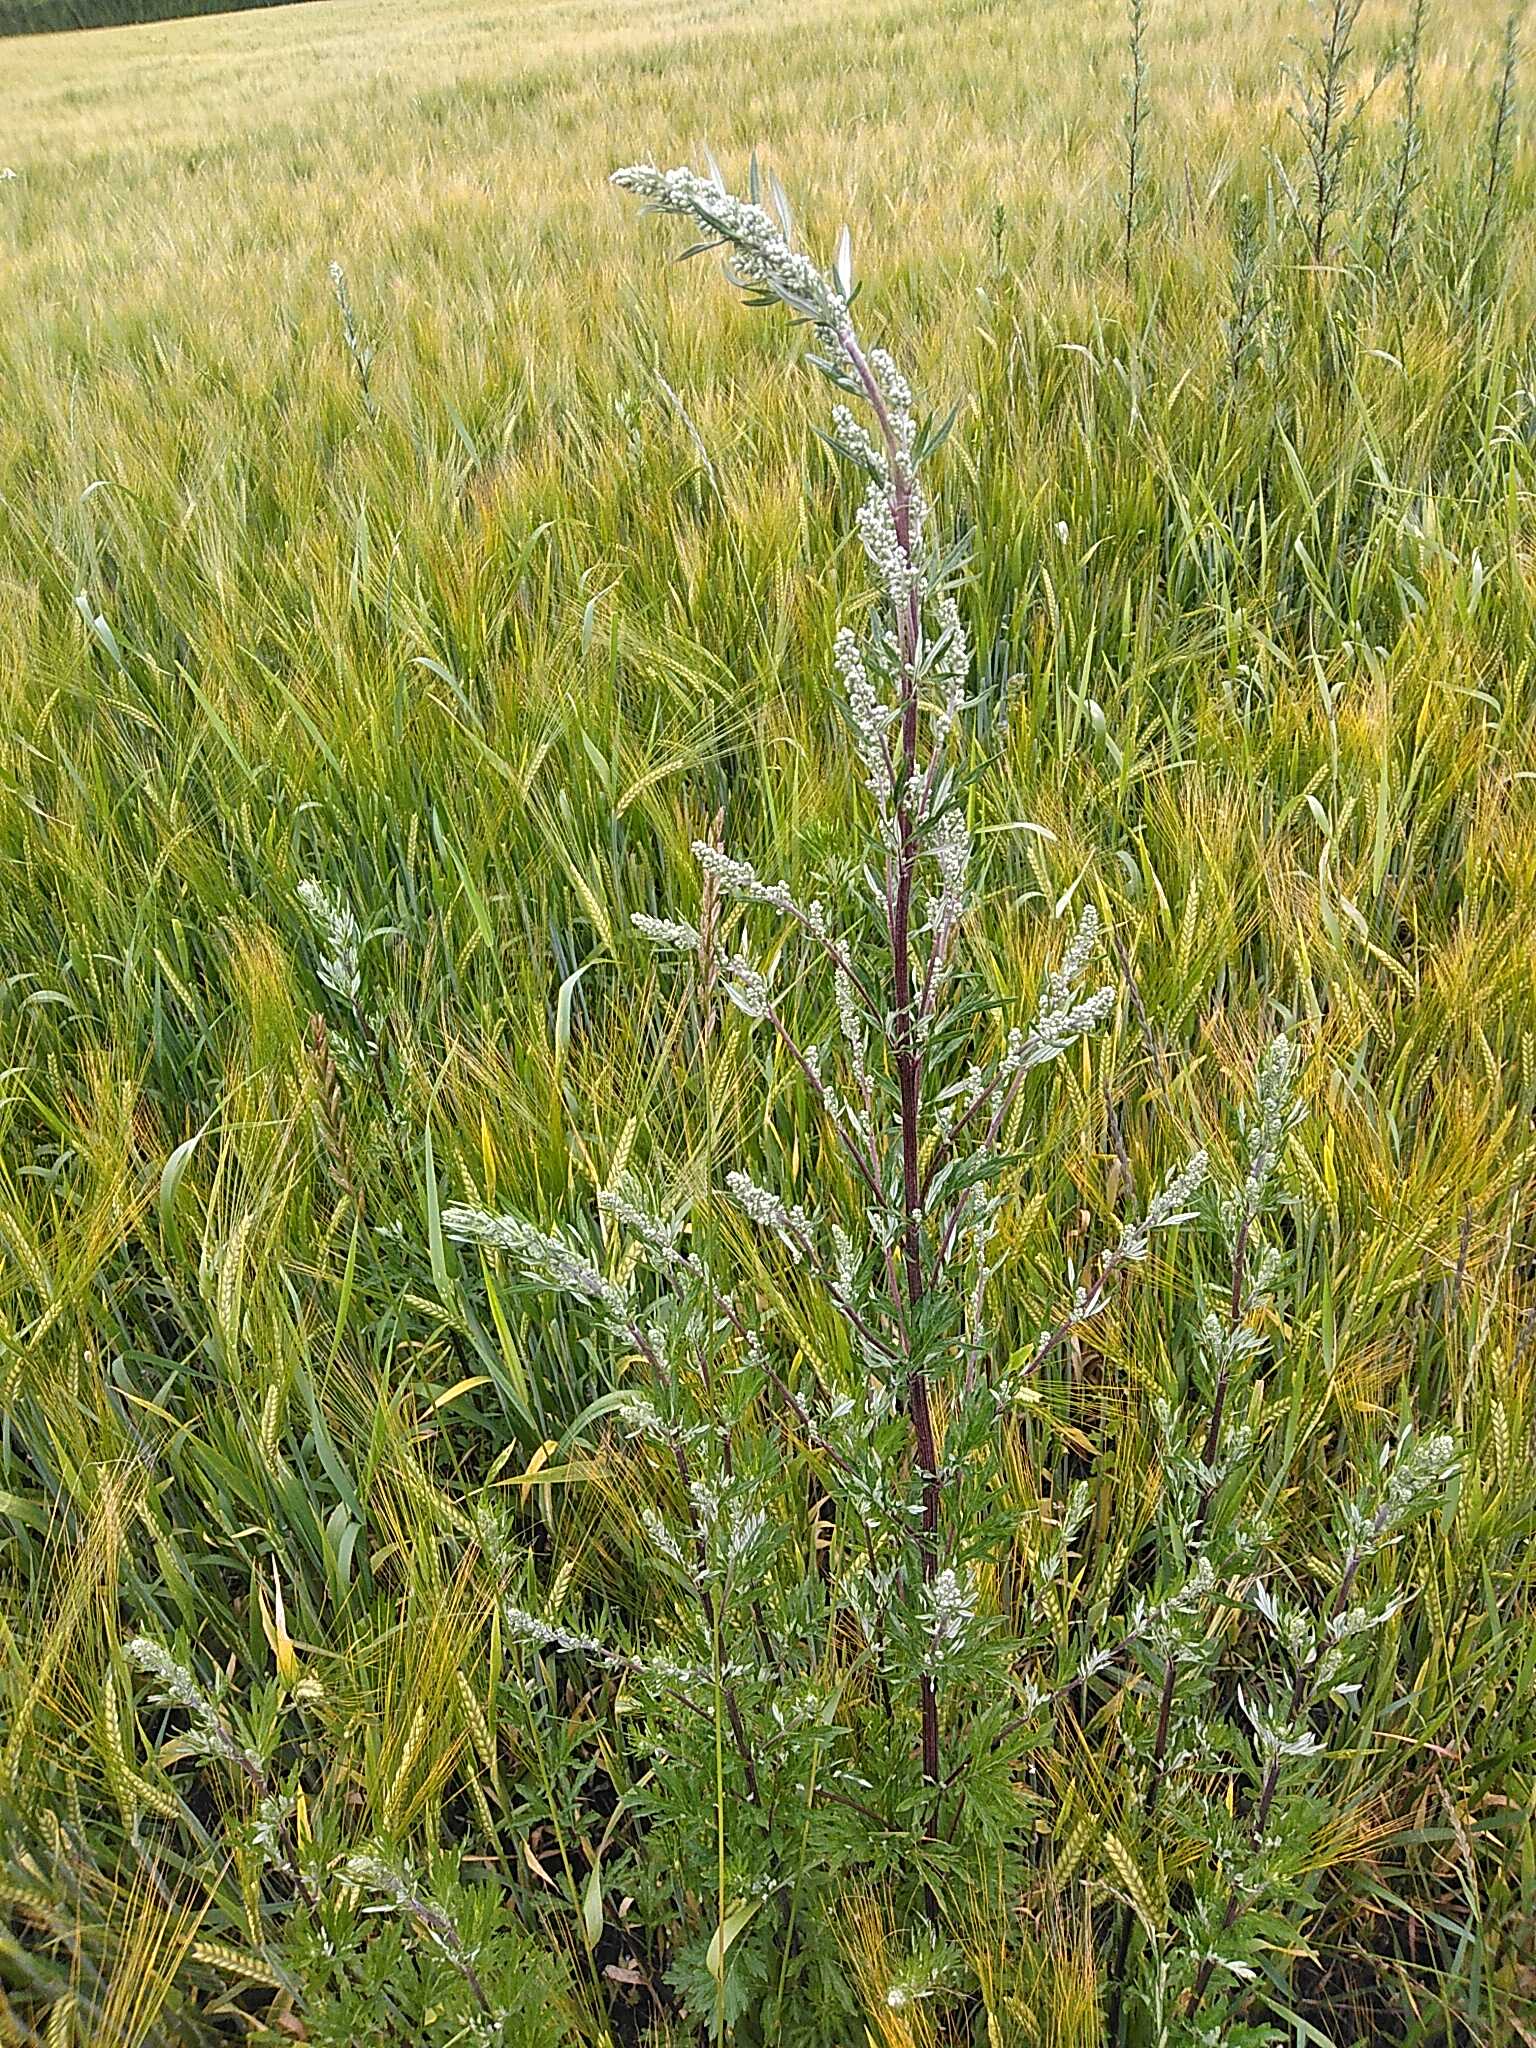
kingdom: Plantae
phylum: Tracheophyta
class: Magnoliopsida
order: Asterales
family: Asteraceae
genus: Artemisia
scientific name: Artemisia vulgaris
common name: Grå-bynke
